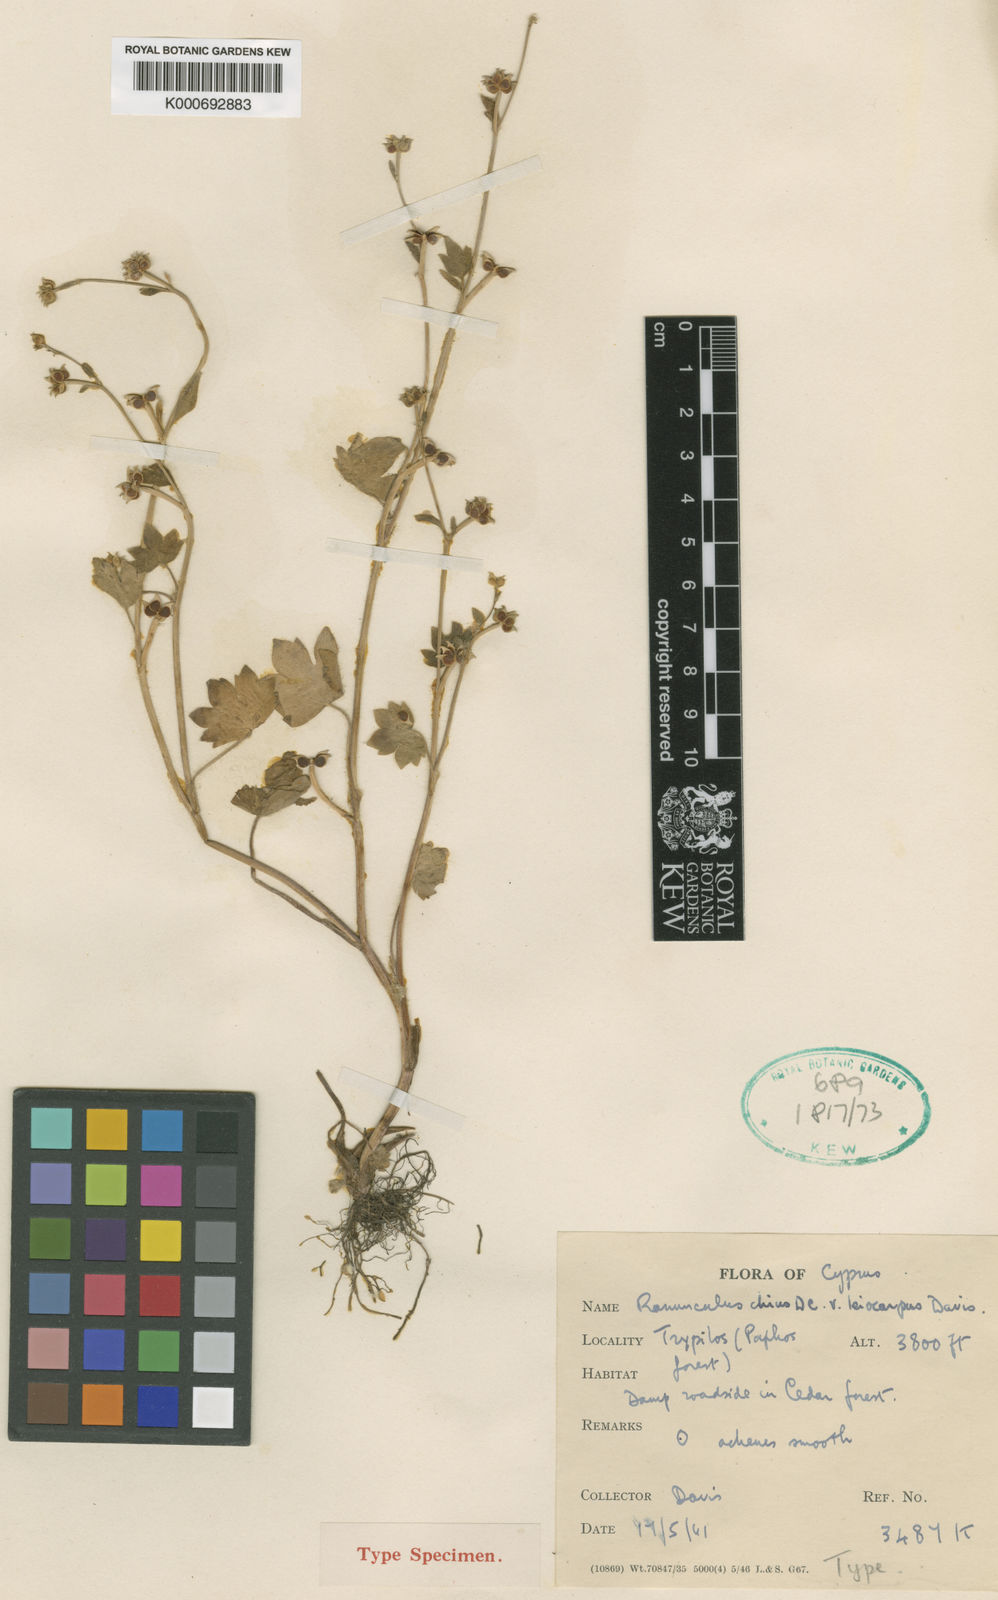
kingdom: Plantae
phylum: Tracheophyta
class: Magnoliopsida
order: Ranunculales
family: Ranunculaceae
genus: Ranunculus
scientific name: Ranunculus chius
